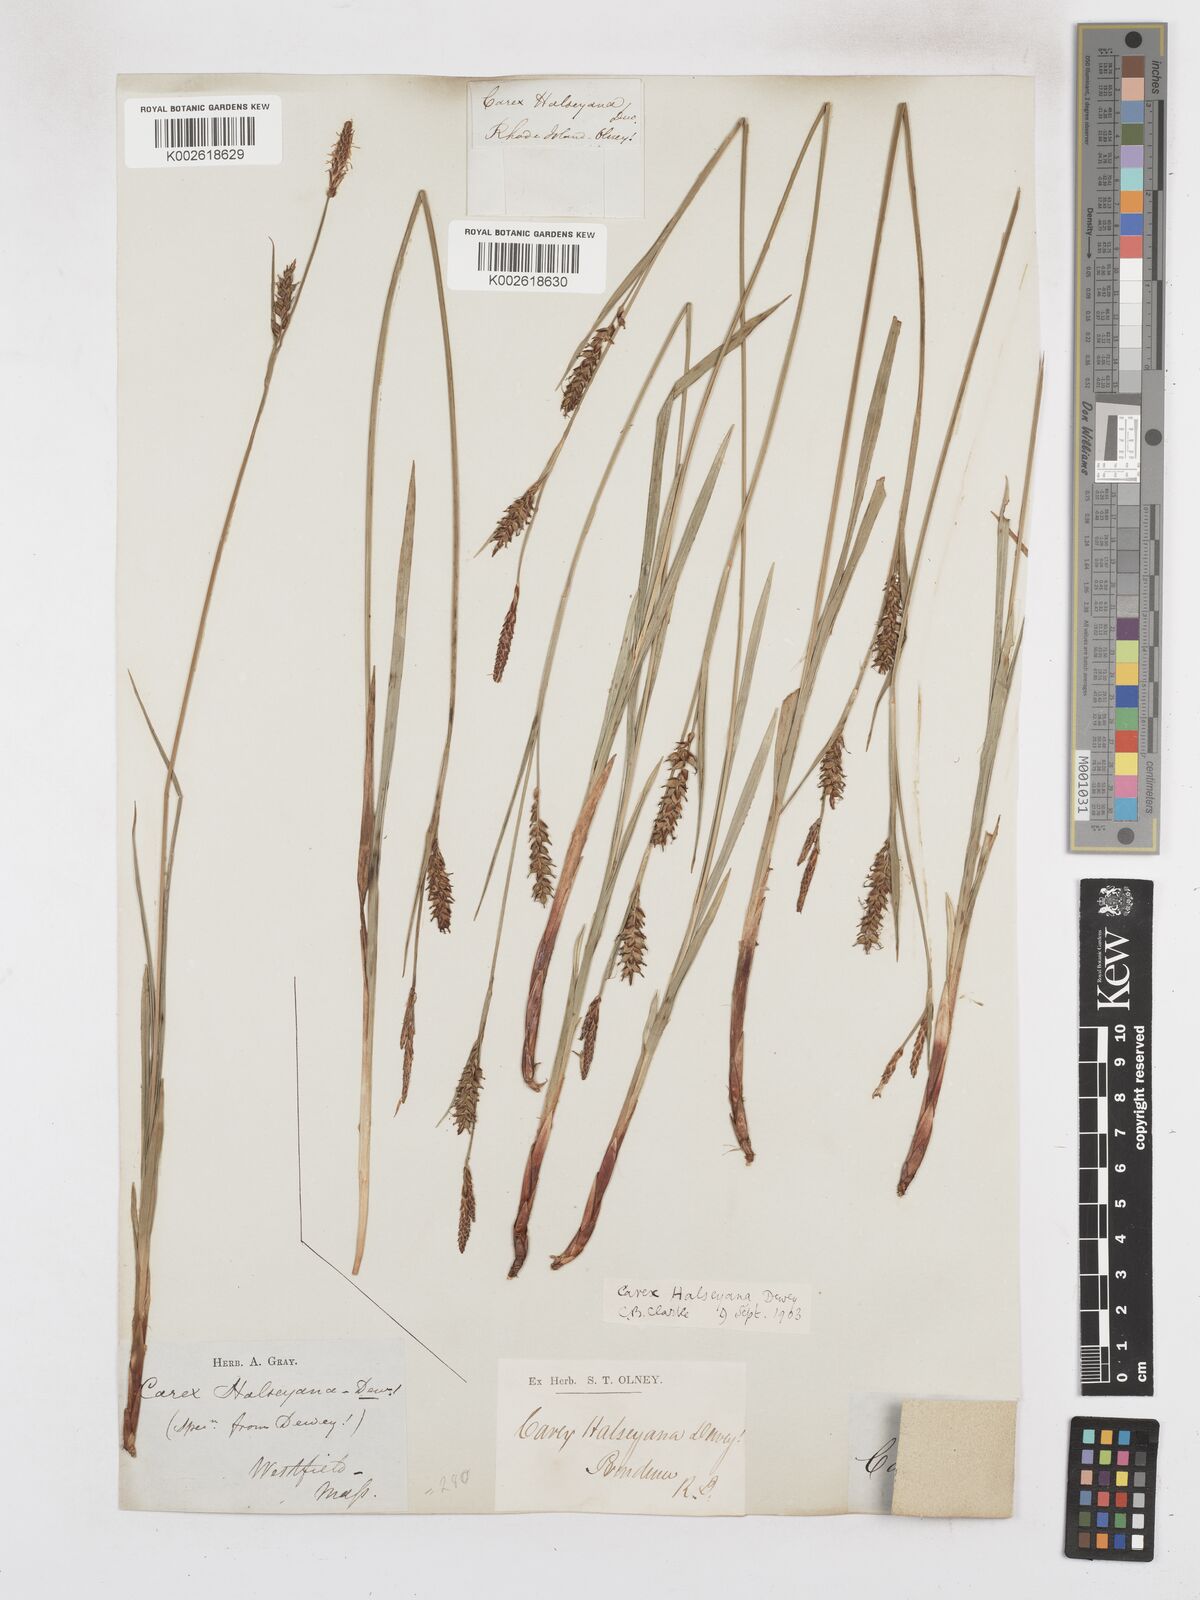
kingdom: Plantae
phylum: Tracheophyta
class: Liliopsida
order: Poales
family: Cyperaceae
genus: Carex
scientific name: Carex polymorpha
